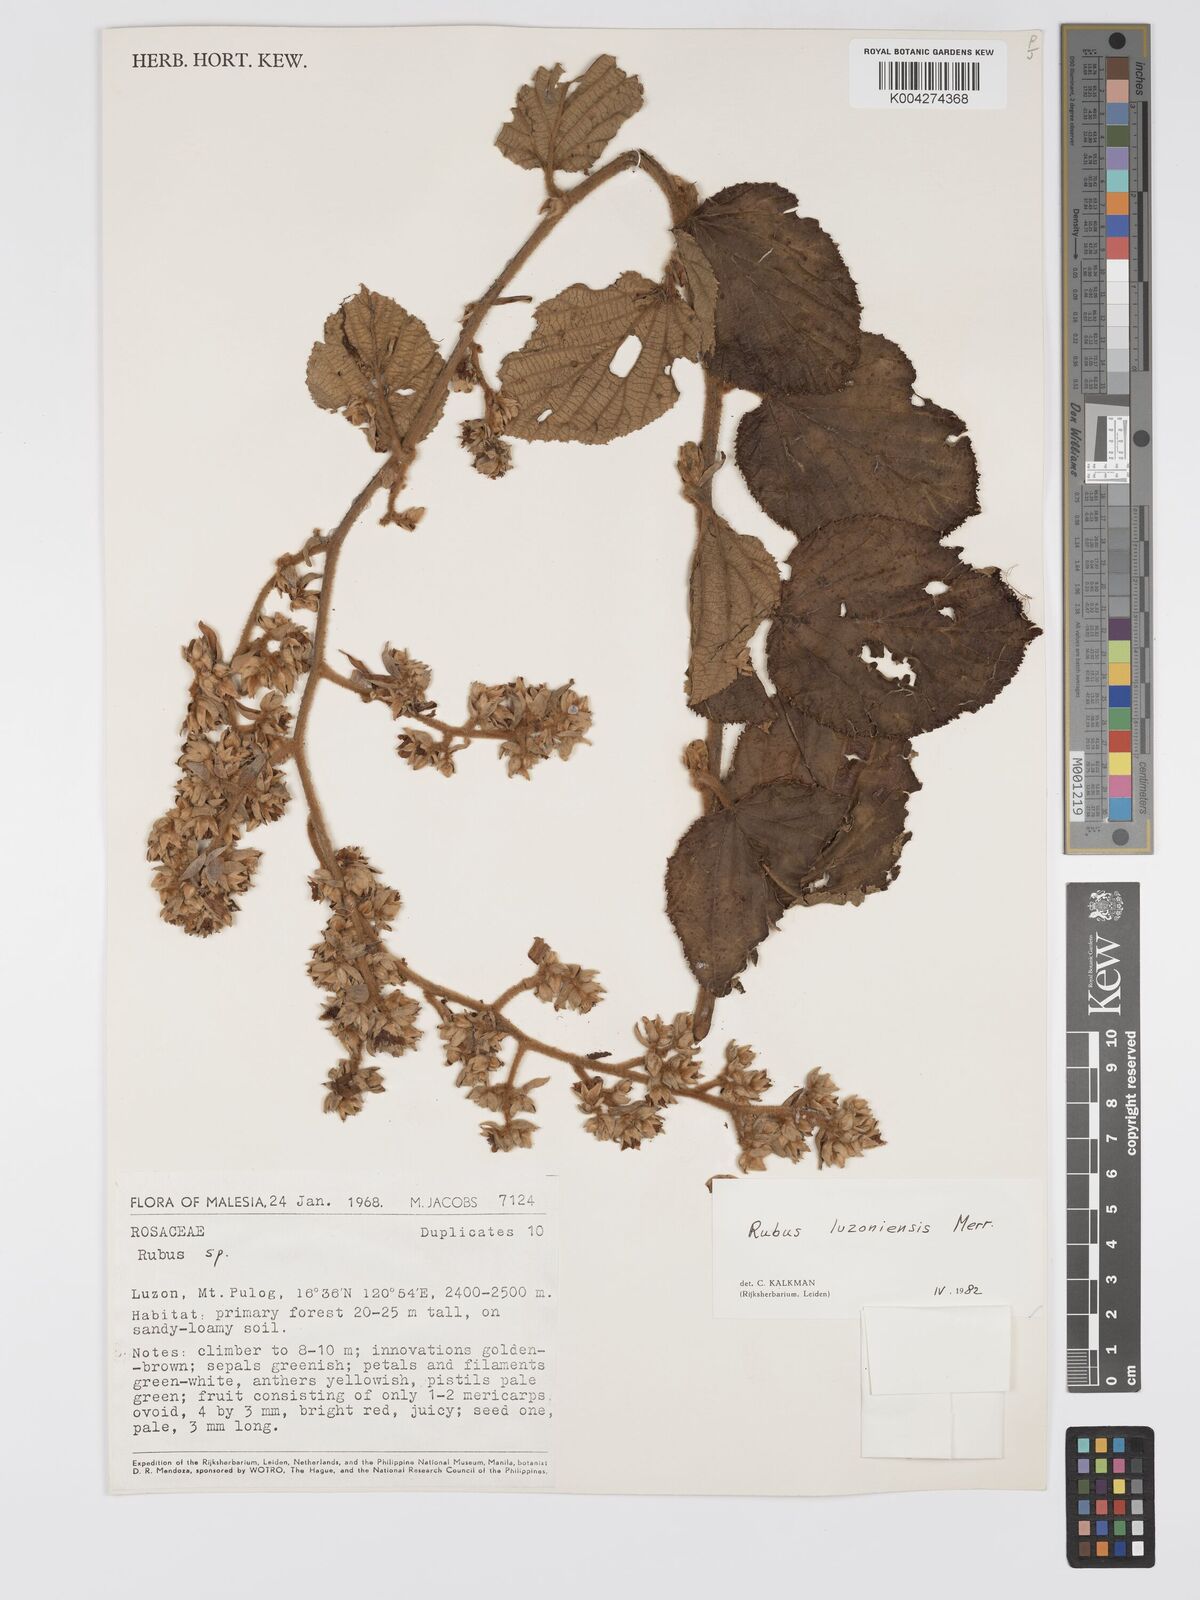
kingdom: Plantae
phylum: Tracheophyta
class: Magnoliopsida
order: Rosales
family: Rosaceae
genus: Rubus
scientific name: Rubus luzoniensis
